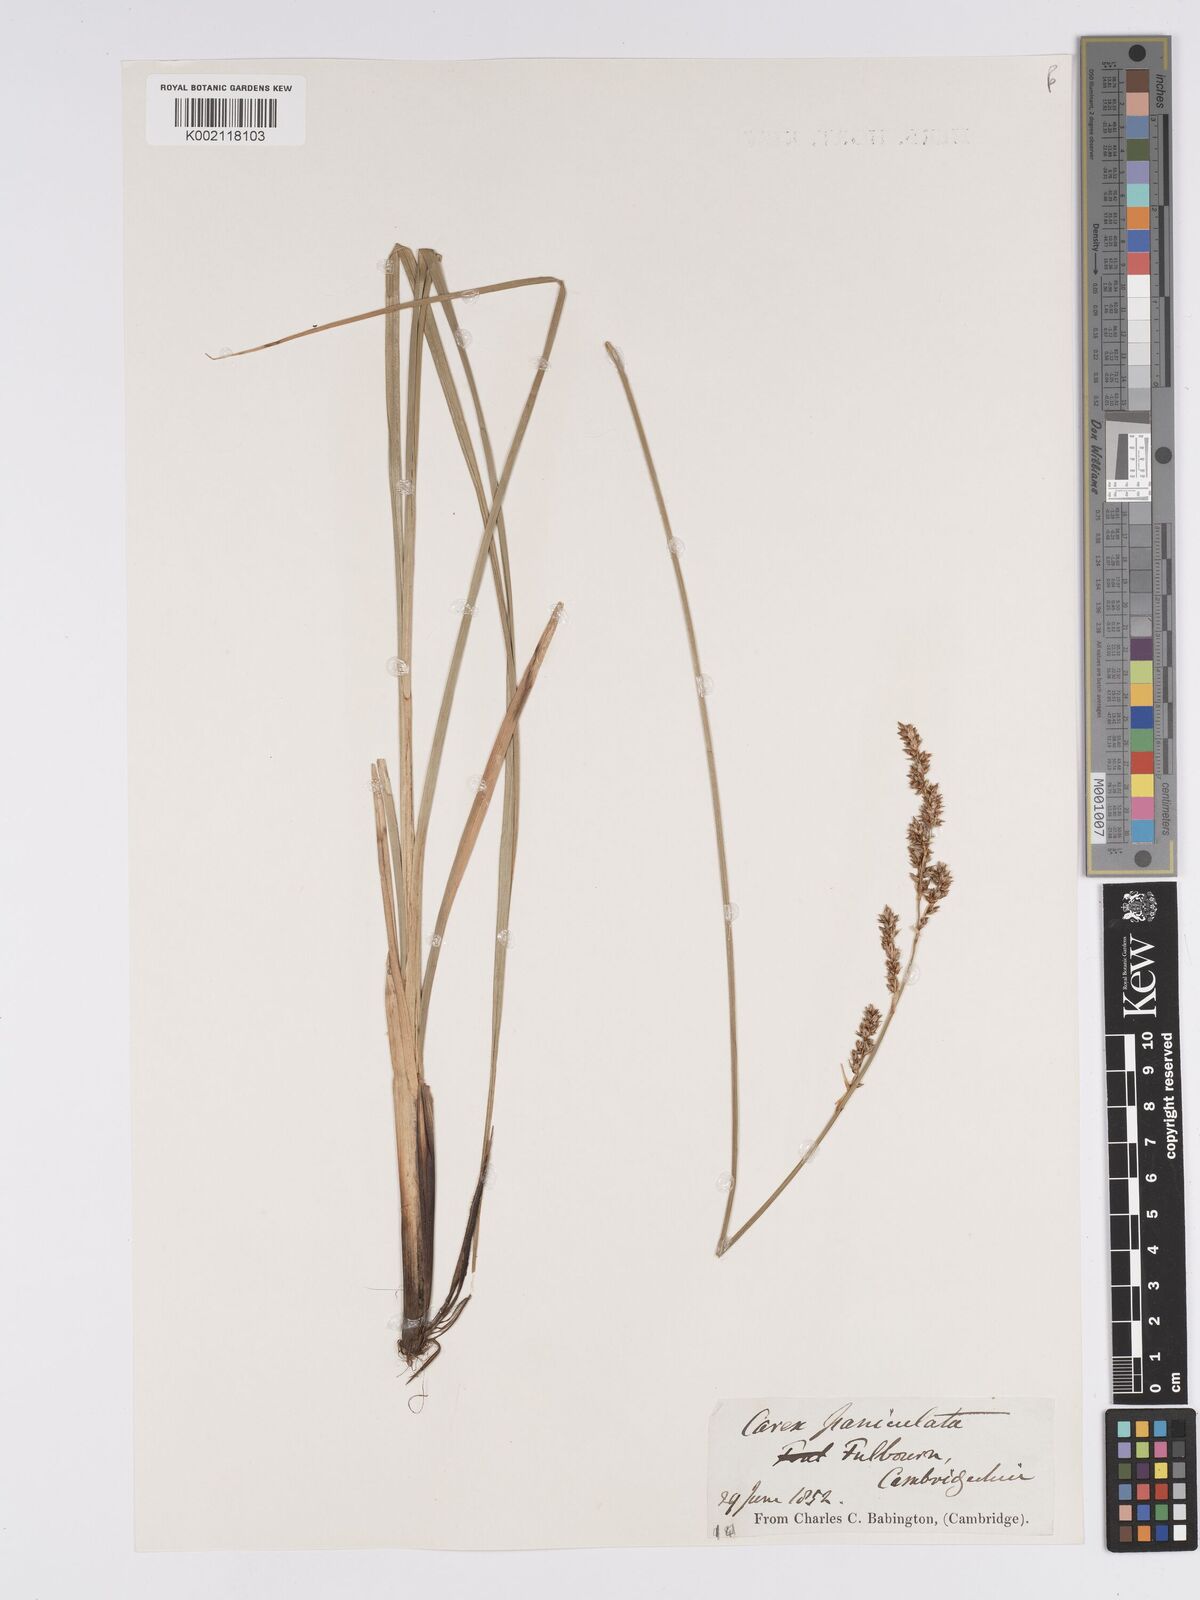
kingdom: Plantae
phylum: Tracheophyta
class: Liliopsida
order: Poales
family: Cyperaceae
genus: Carex
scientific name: Carex paniculata
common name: Greater tussock-sedge
